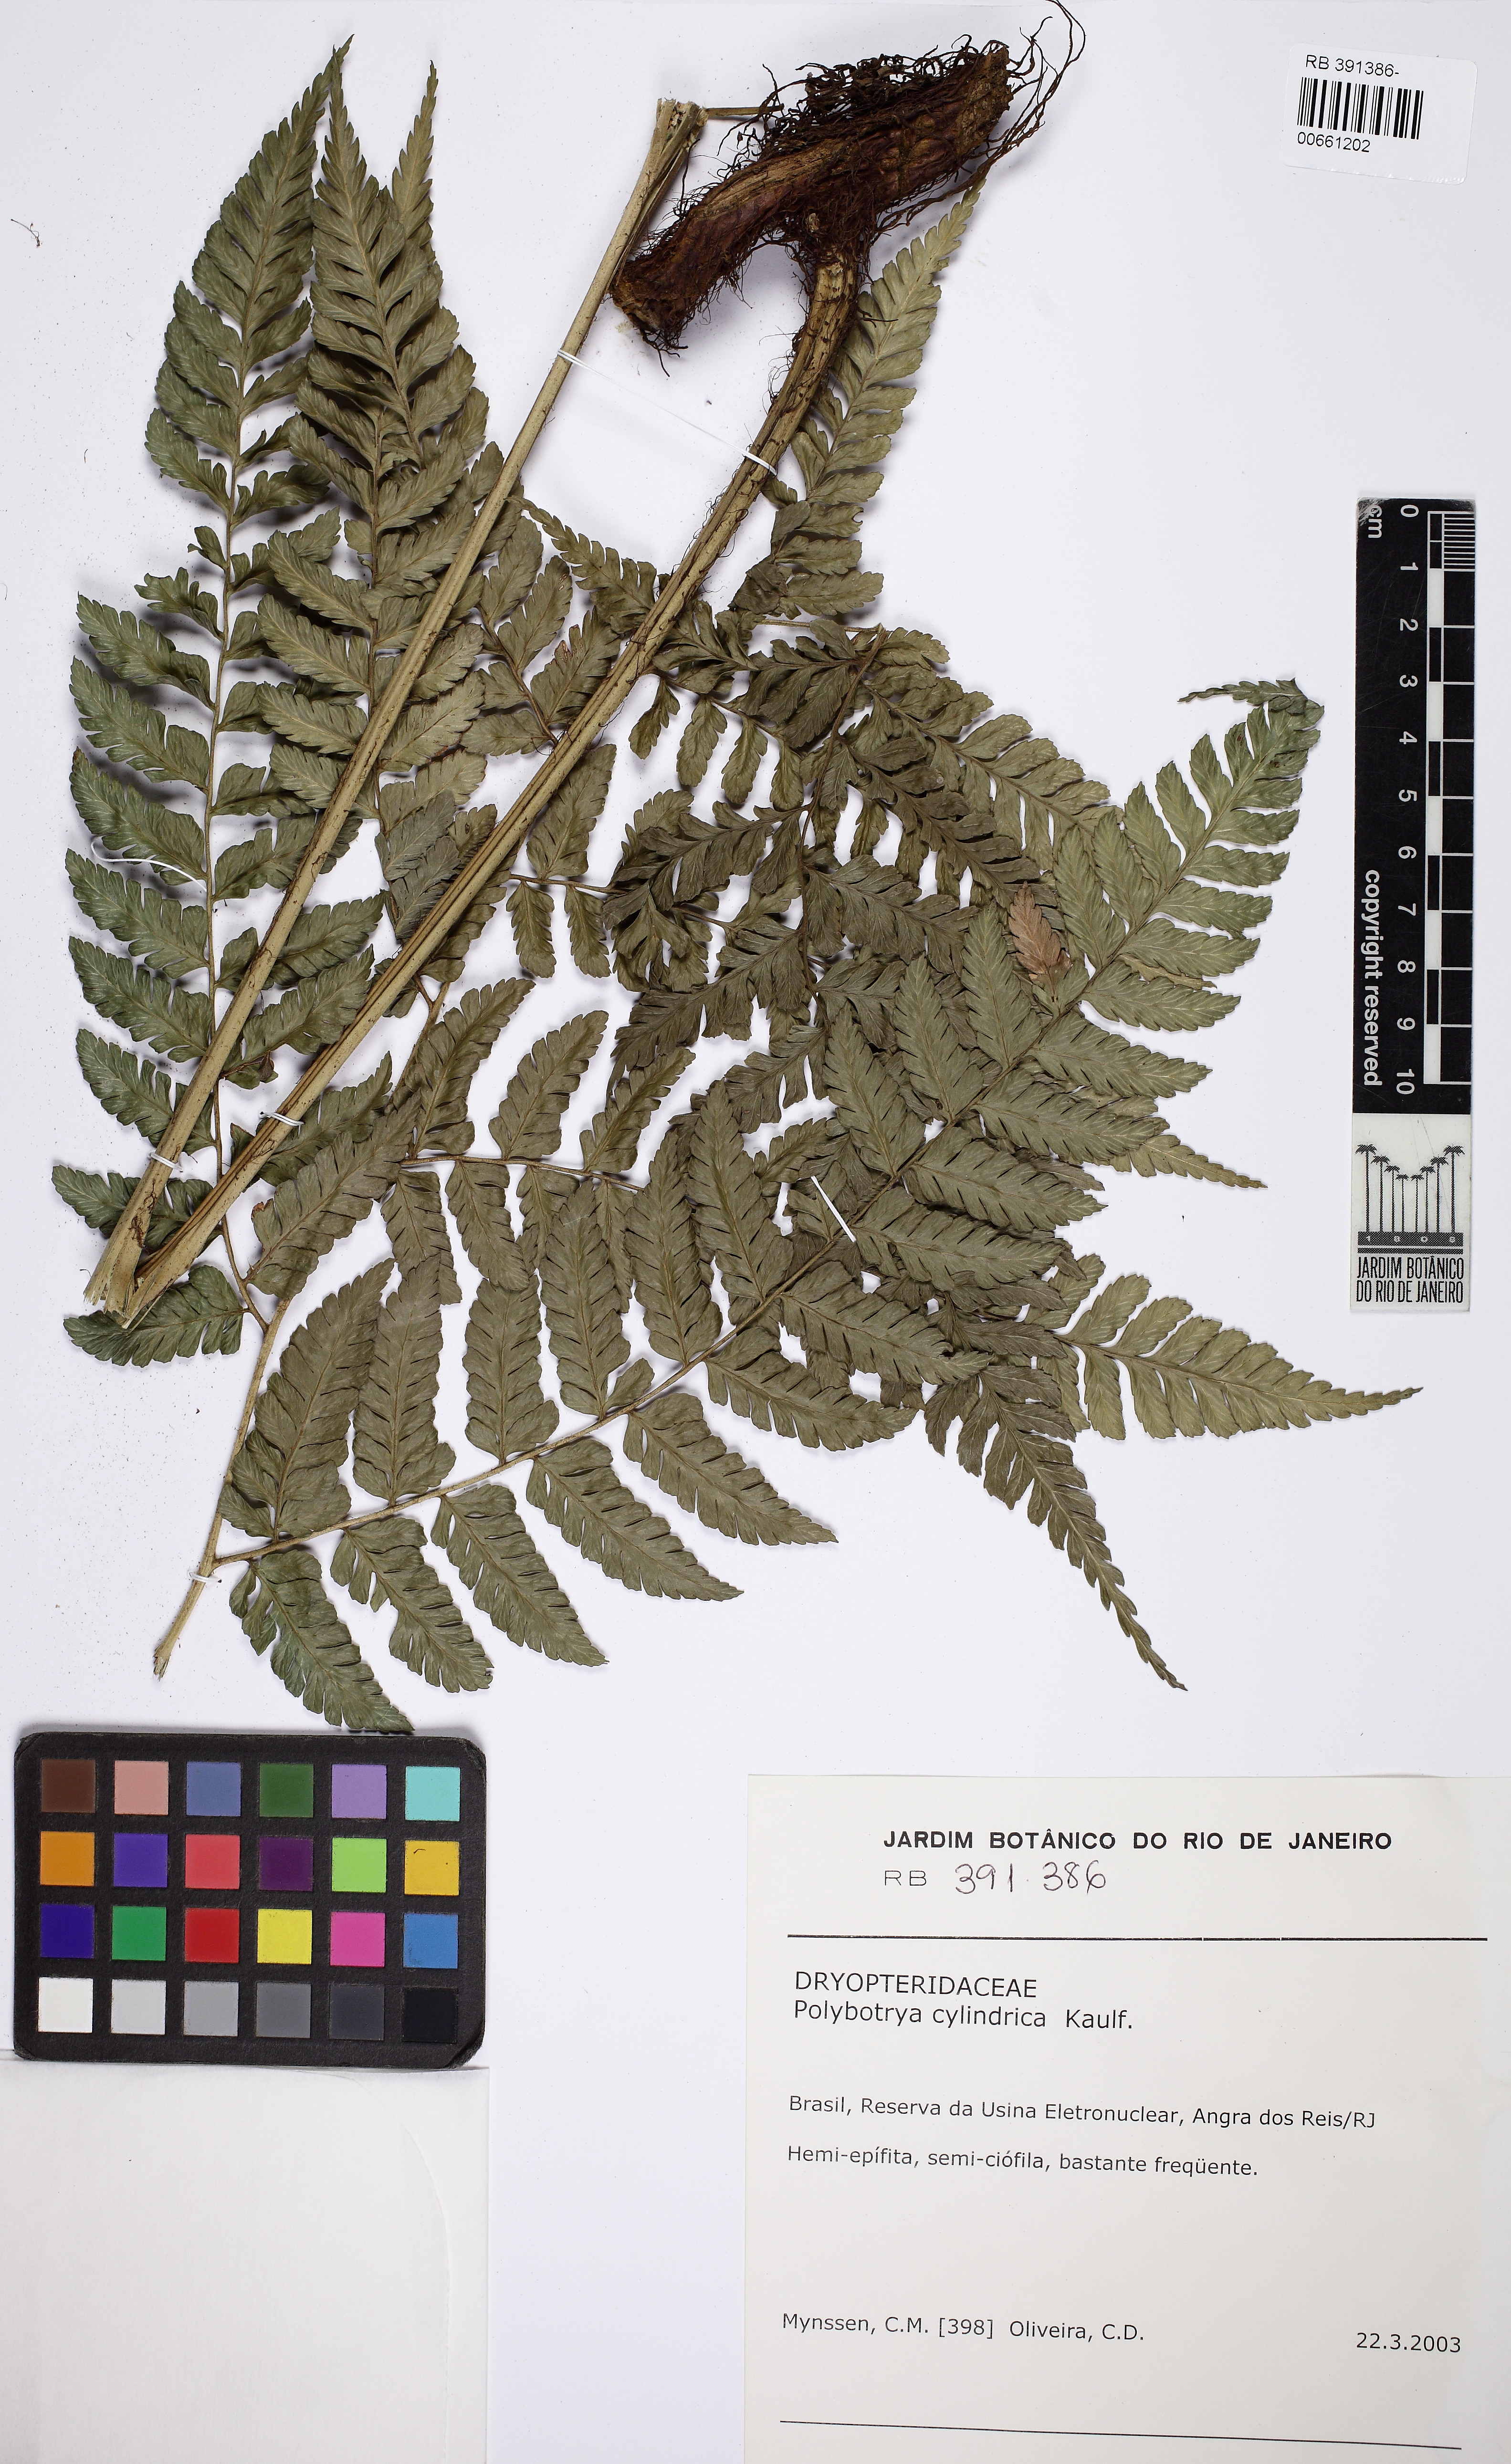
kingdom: Plantae
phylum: Tracheophyta
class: Polypodiopsida
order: Polypodiales
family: Dryopteridaceae
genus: Polybotrya
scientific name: Polybotrya cylindrica
